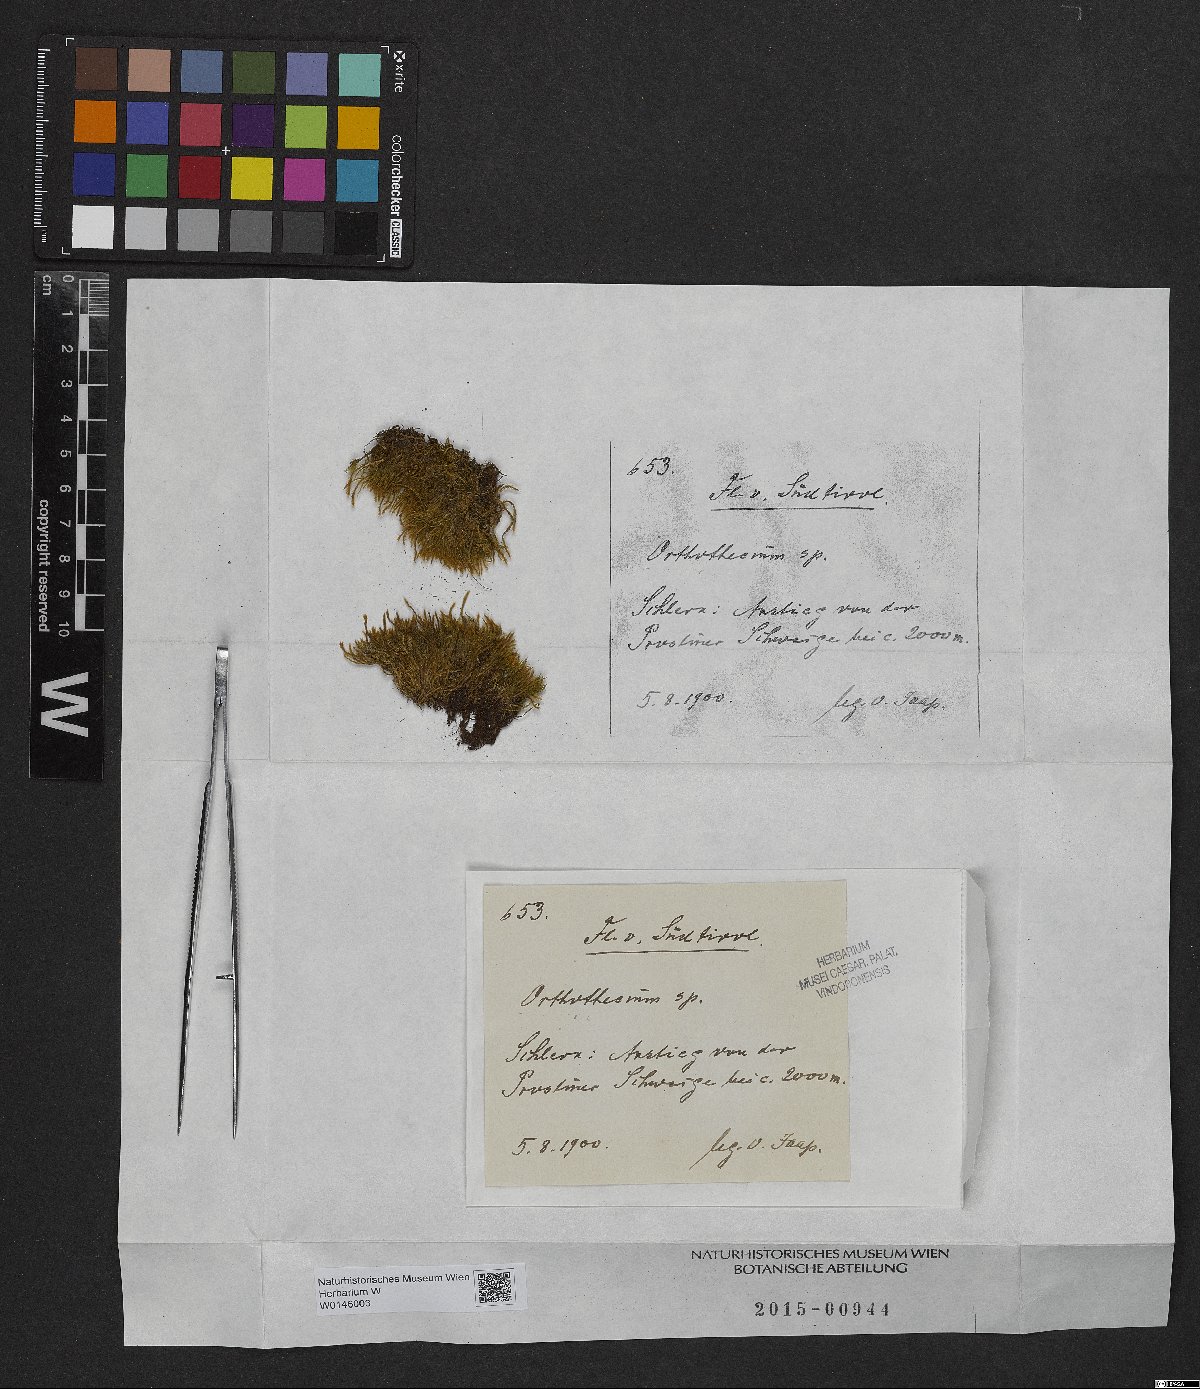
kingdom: Plantae
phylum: Bryophyta
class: Bryopsida
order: Hypnales
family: Plagiotheciaceae
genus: Orthothecium
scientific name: Orthothecium
